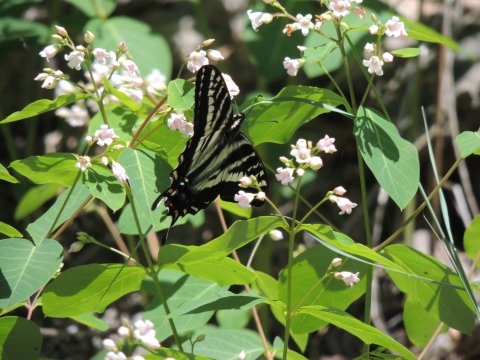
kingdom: Animalia
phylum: Arthropoda
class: Insecta
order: Lepidoptera
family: Papilionidae
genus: Pterourus
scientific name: Pterourus eurymedon
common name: Pale Swallowtail
